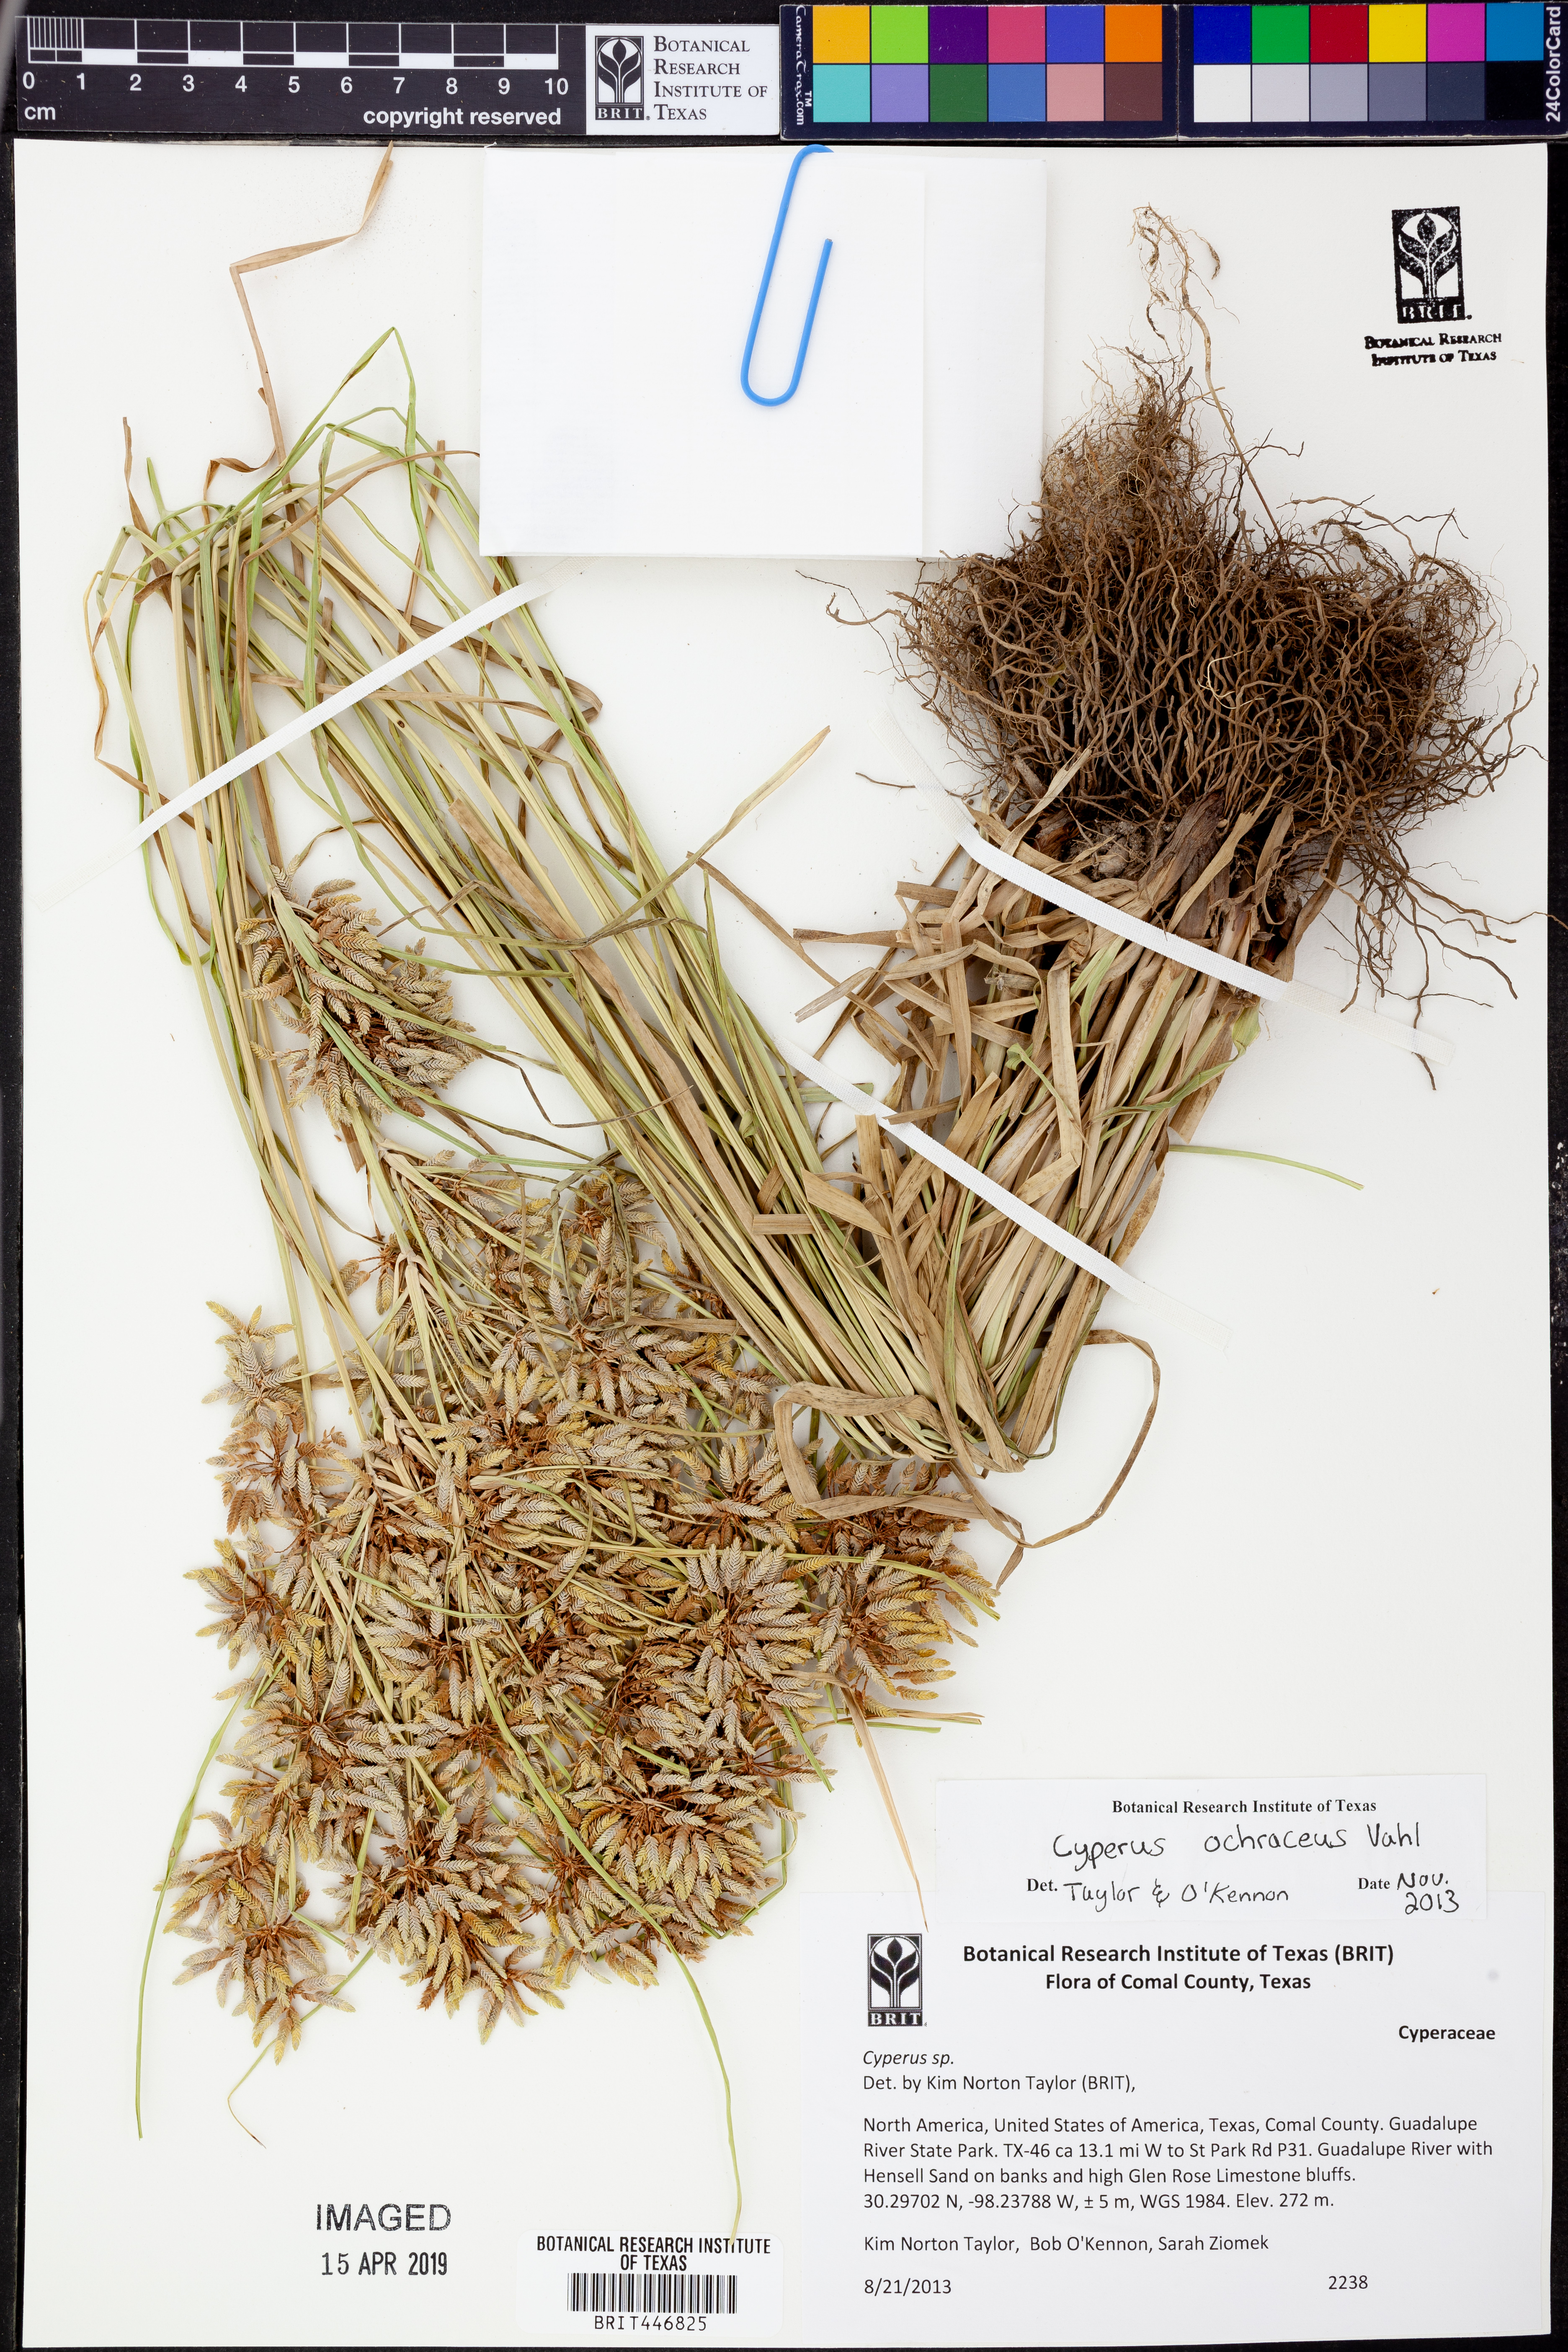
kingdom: Plantae
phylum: Tracheophyta
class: Liliopsida
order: Poales
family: Cyperaceae
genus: Cyperus
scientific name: Cyperus ochraceus
